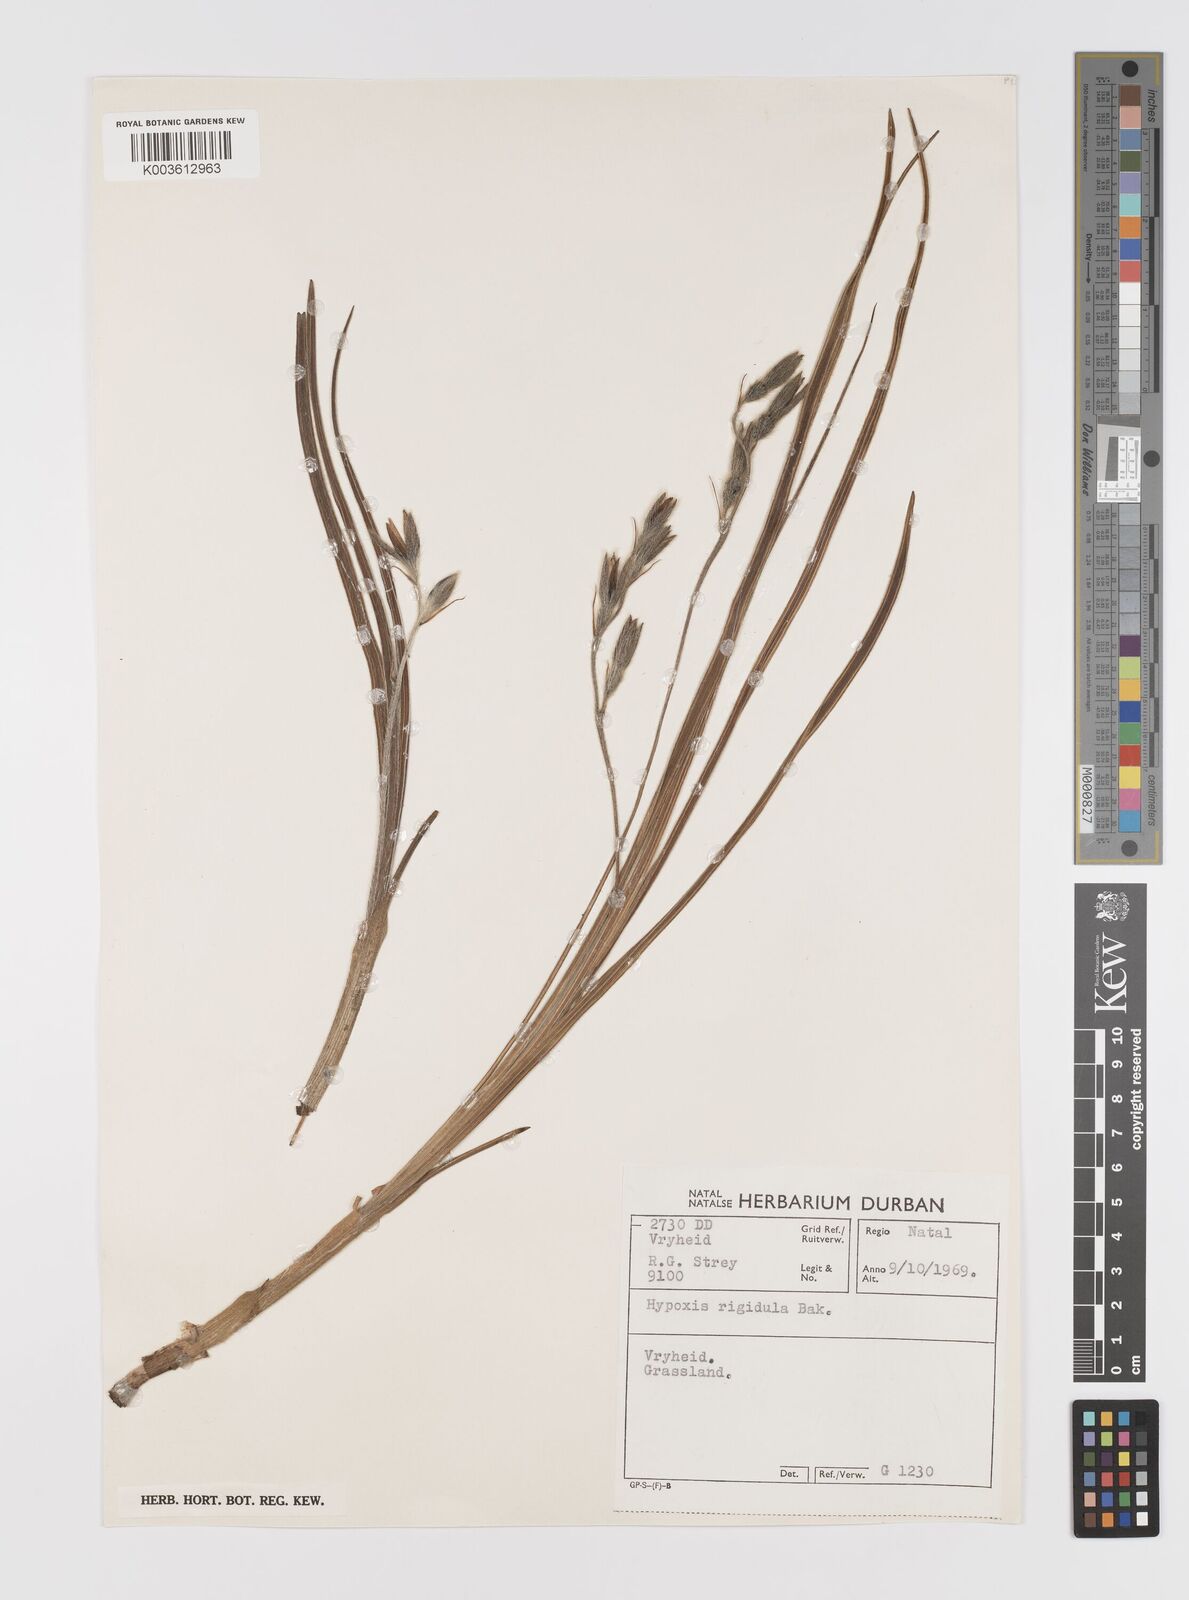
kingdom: Plantae
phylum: Tracheophyta
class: Liliopsida
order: Asparagales
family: Hypoxidaceae
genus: Hypoxis
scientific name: Hypoxis rigidula
